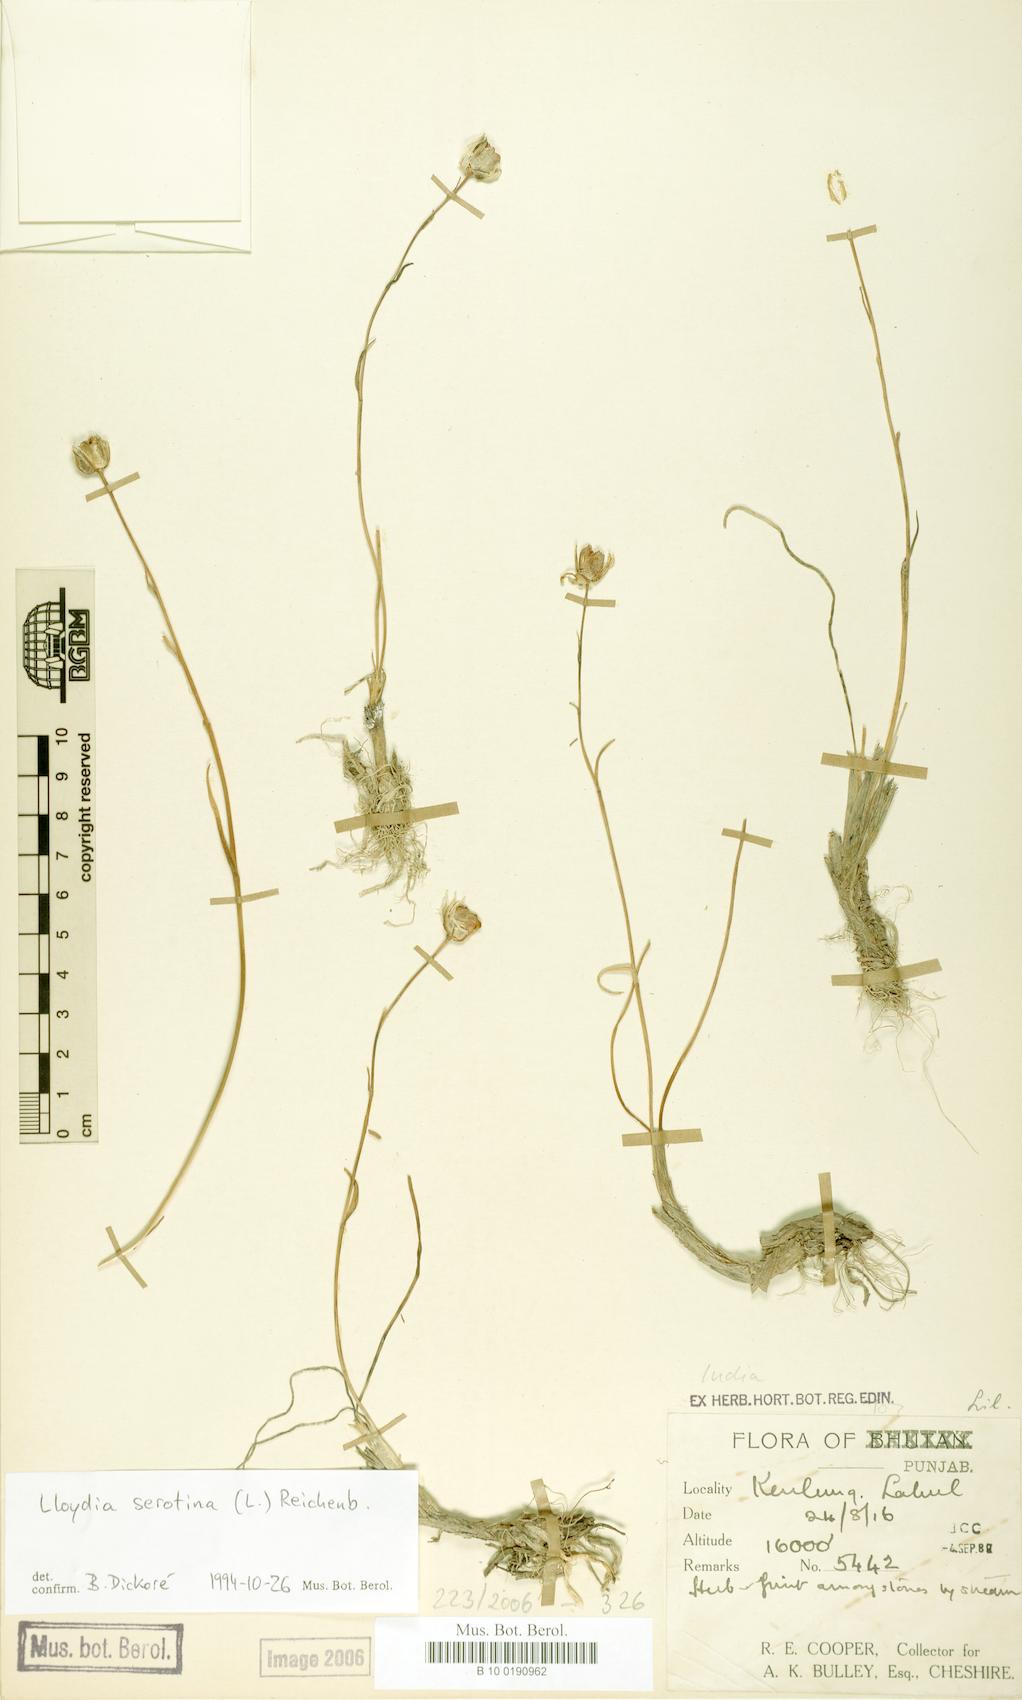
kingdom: Plantae
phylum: Tracheophyta
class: Liliopsida
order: Liliales
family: Liliaceae
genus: Gagea
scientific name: Gagea serotina
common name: Snowdon lily
